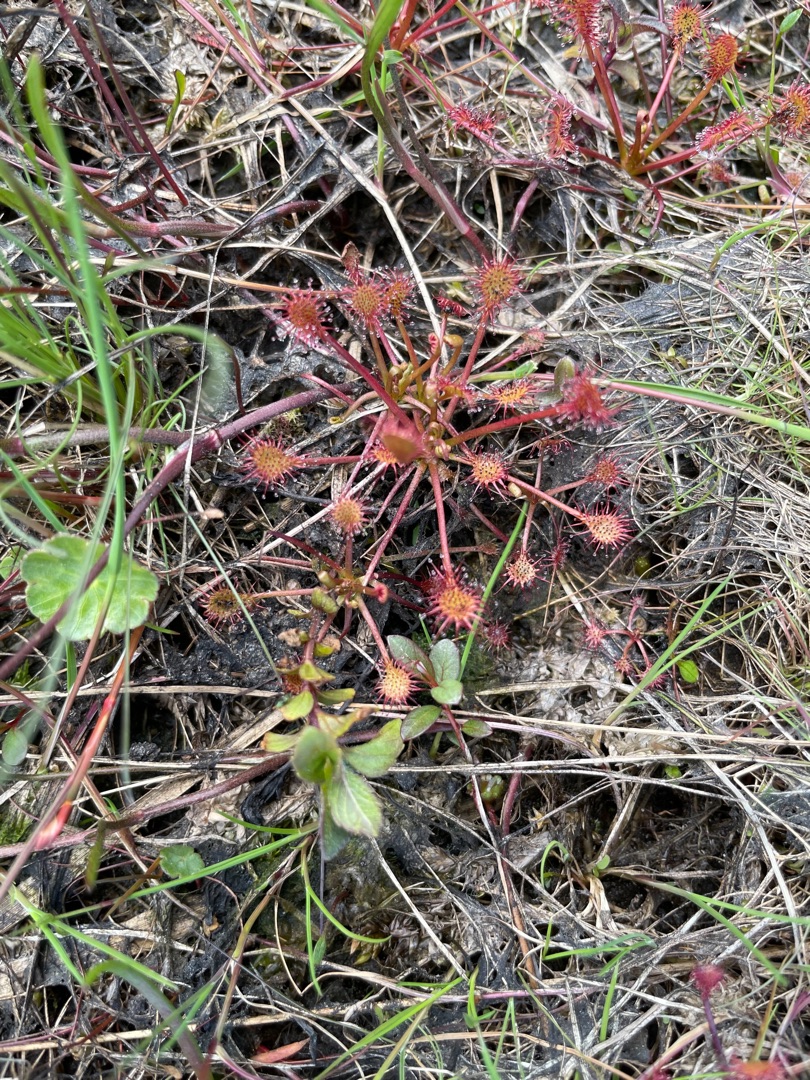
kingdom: Plantae
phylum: Tracheophyta
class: Magnoliopsida
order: Caryophyllales
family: Droseraceae
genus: Drosera
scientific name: Drosera intermedia
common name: Liden soldug
